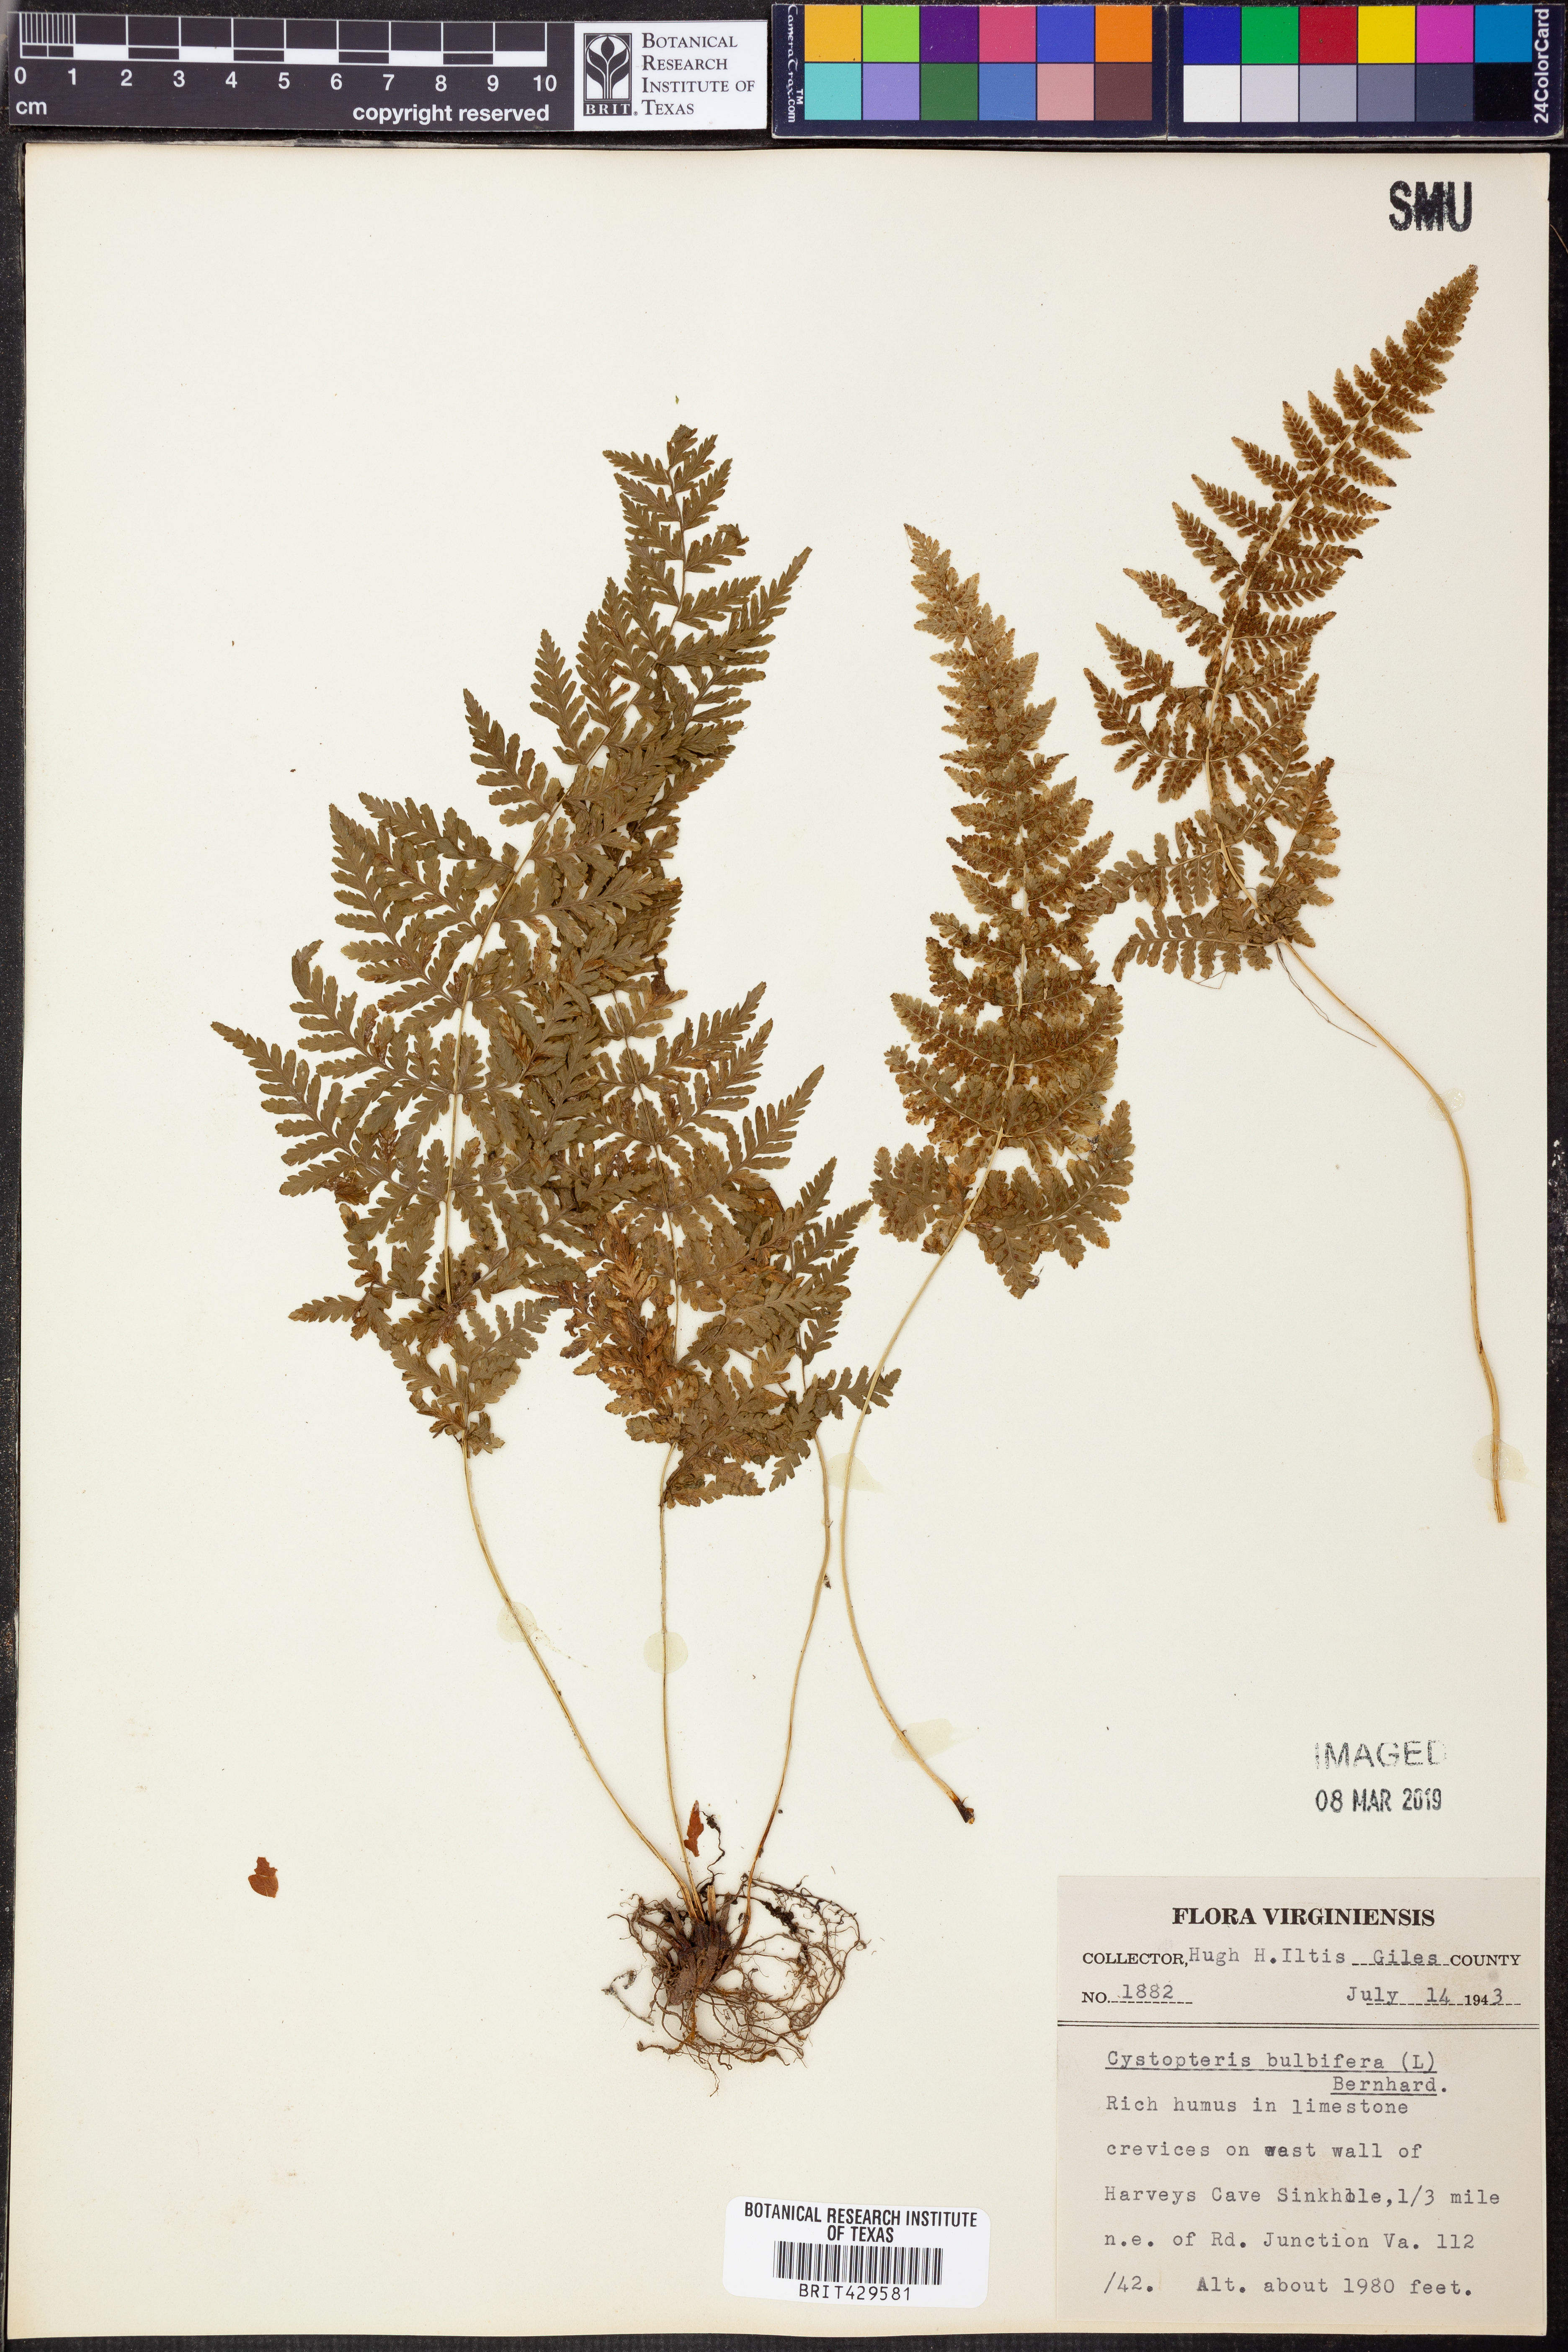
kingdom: Plantae
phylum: Tracheophyta
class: Polypodiopsida
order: Polypodiales
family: Cystopteridaceae
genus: Cystopteris
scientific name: Cystopteris bulbifera
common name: Bulblet bladder fern
